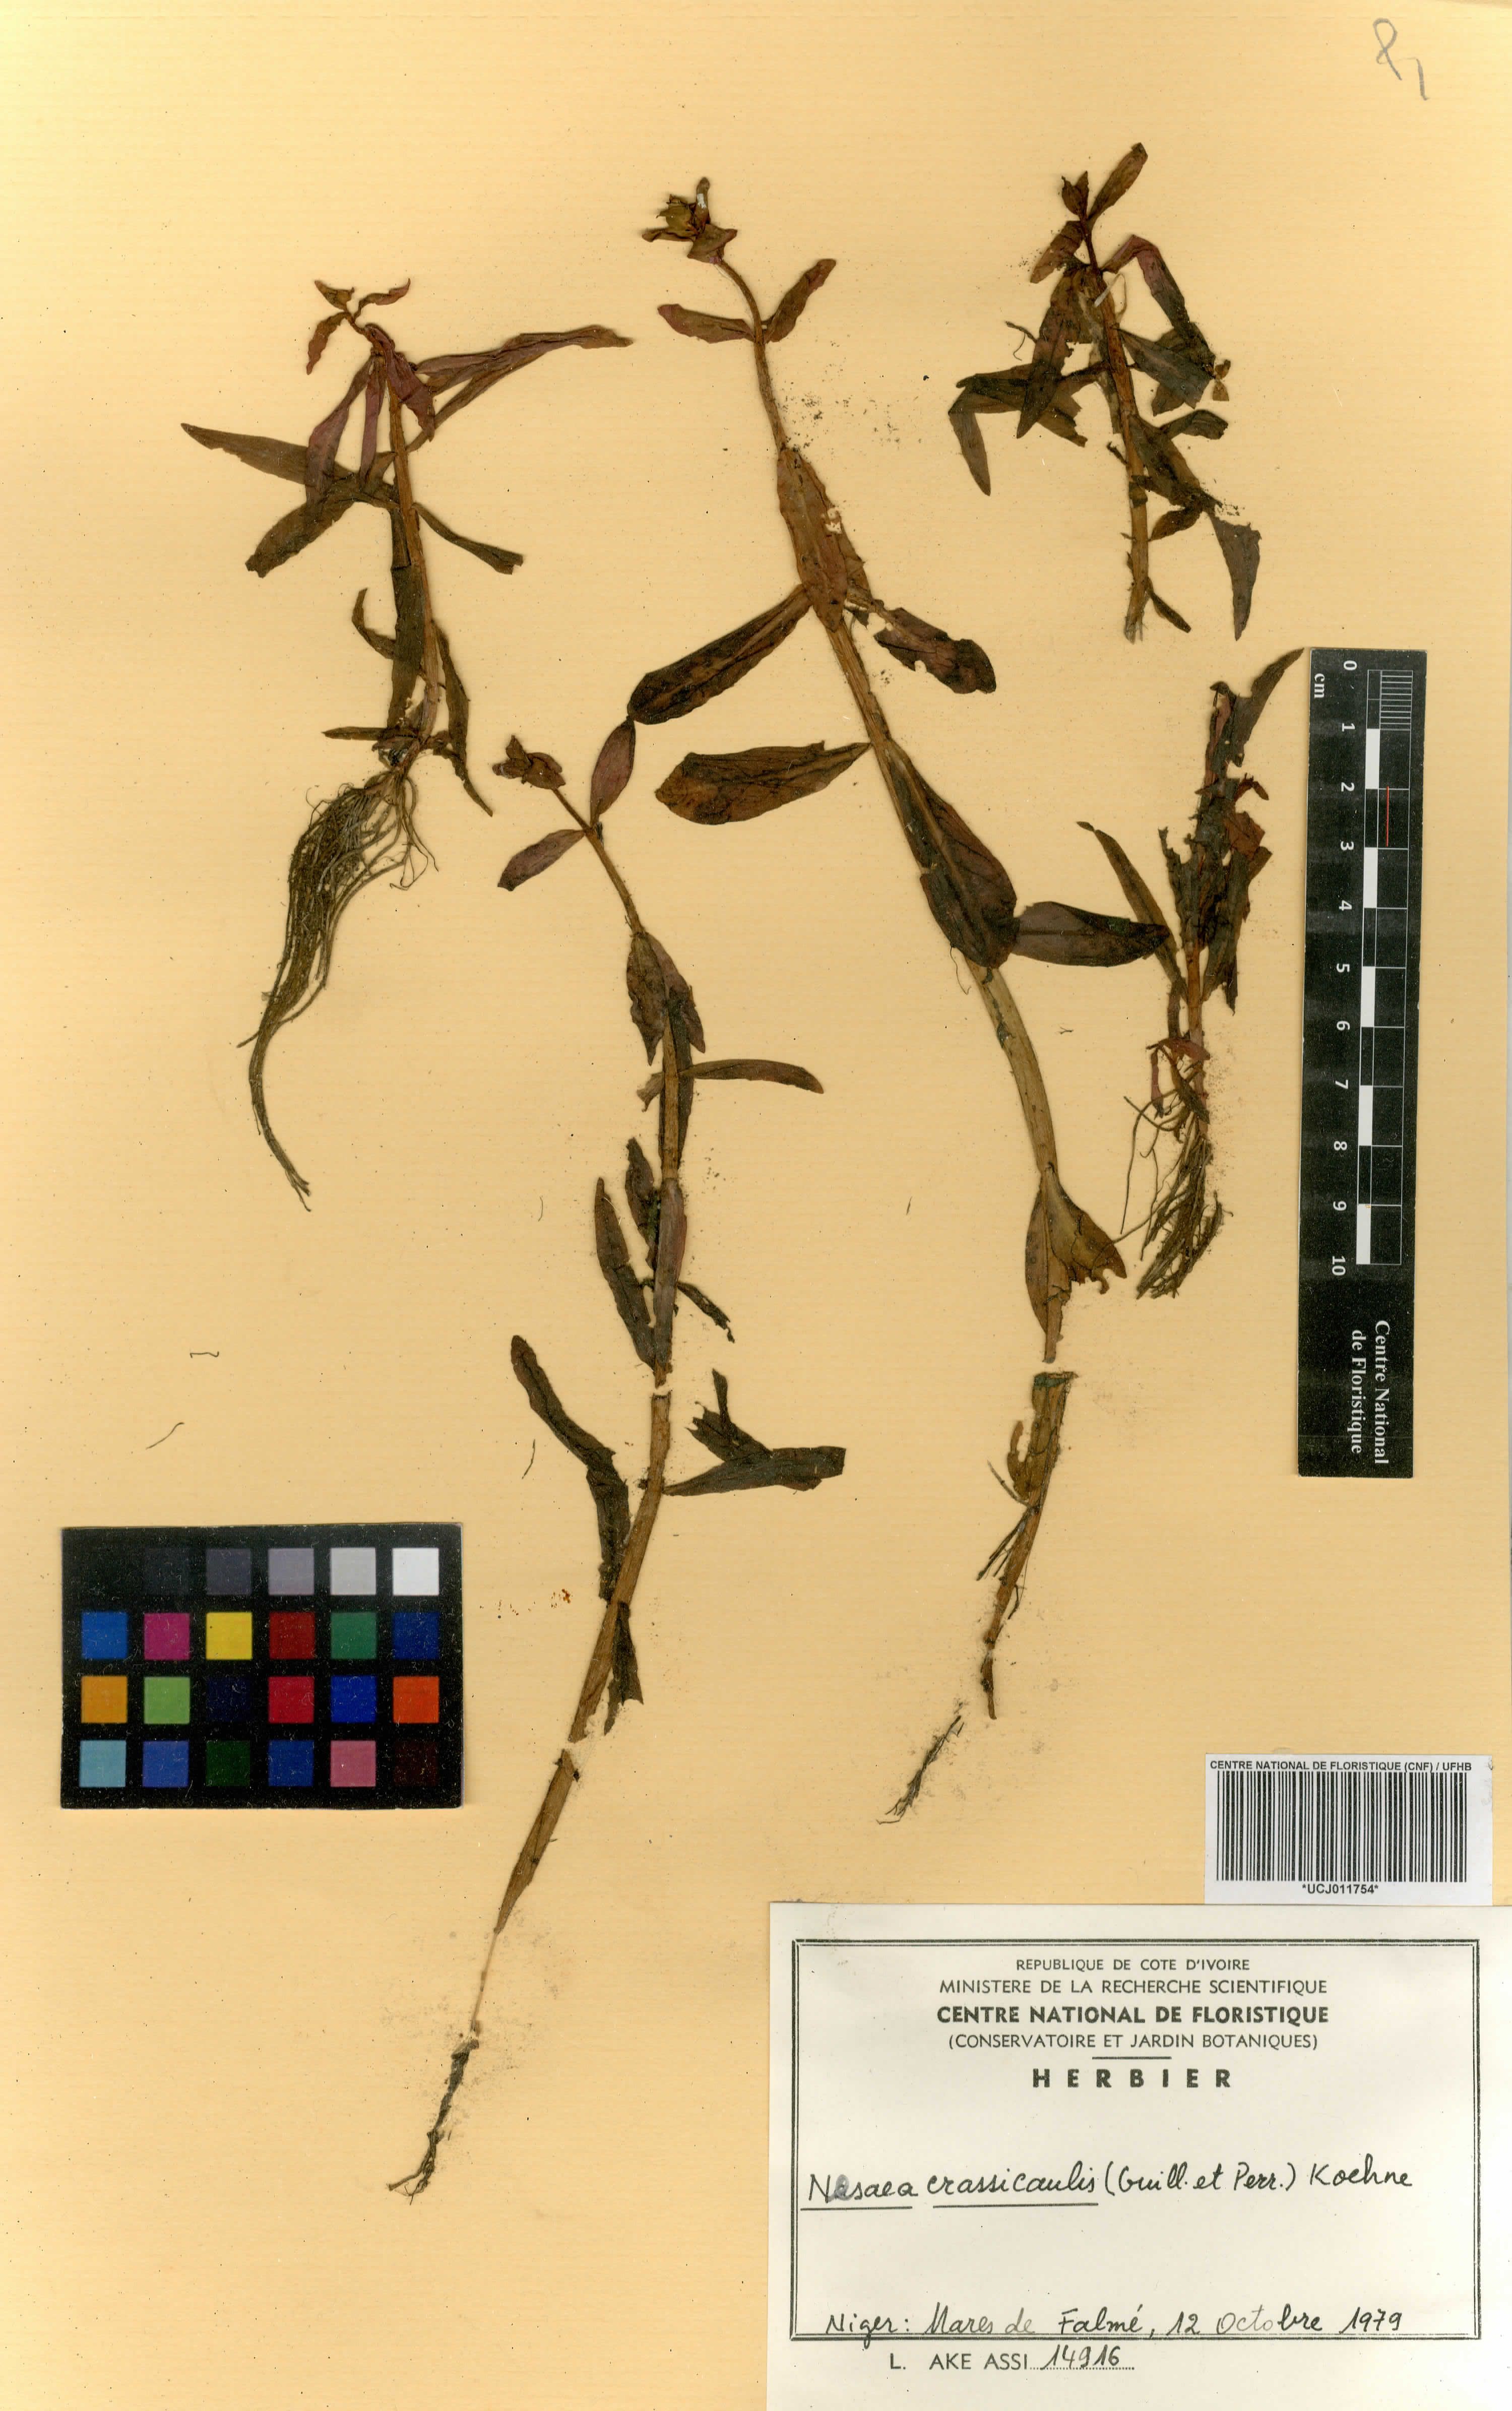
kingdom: Plantae
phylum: Tracheophyta
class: Magnoliopsida
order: Myrtales
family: Lythraceae
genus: Ammannia
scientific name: Ammannia crassicaulis
